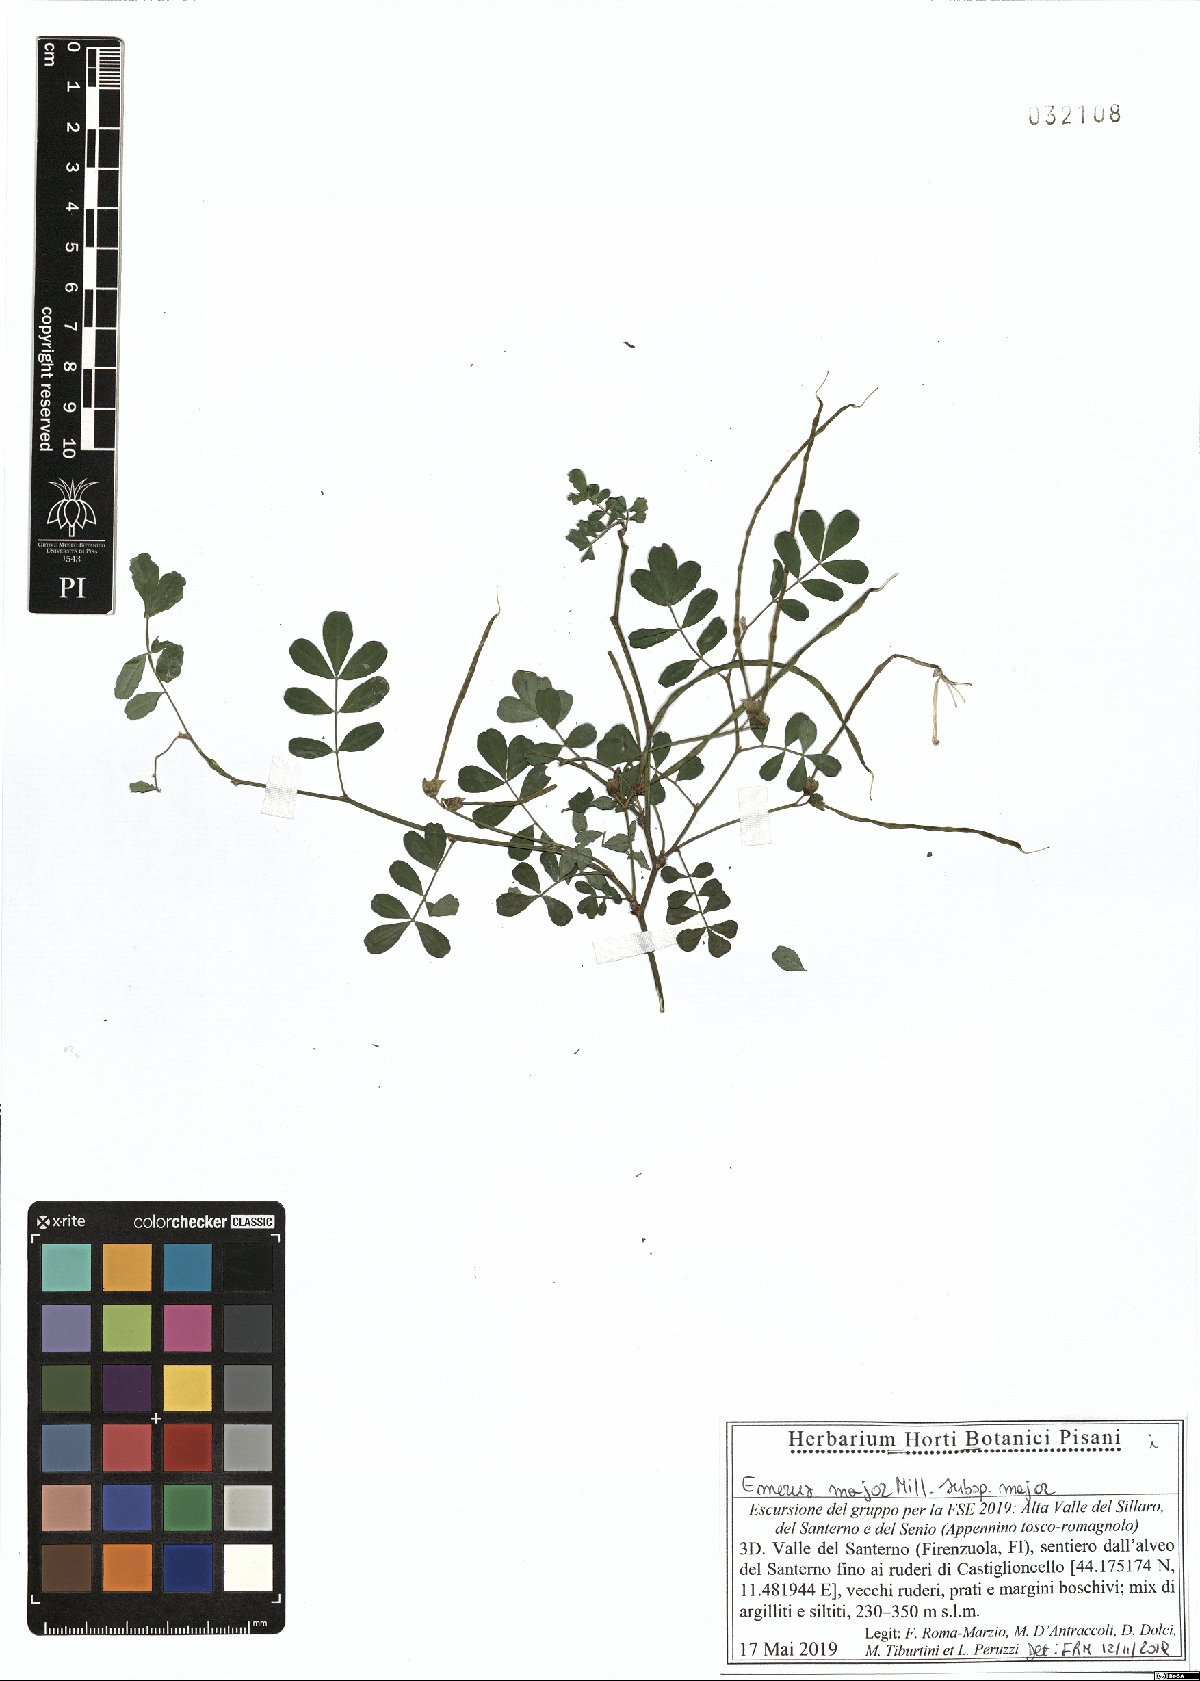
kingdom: Plantae
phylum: Tracheophyta
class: Magnoliopsida
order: Fabales
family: Fabaceae
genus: Hippocrepis
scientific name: Hippocrepis emerus
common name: Scorpion senna
